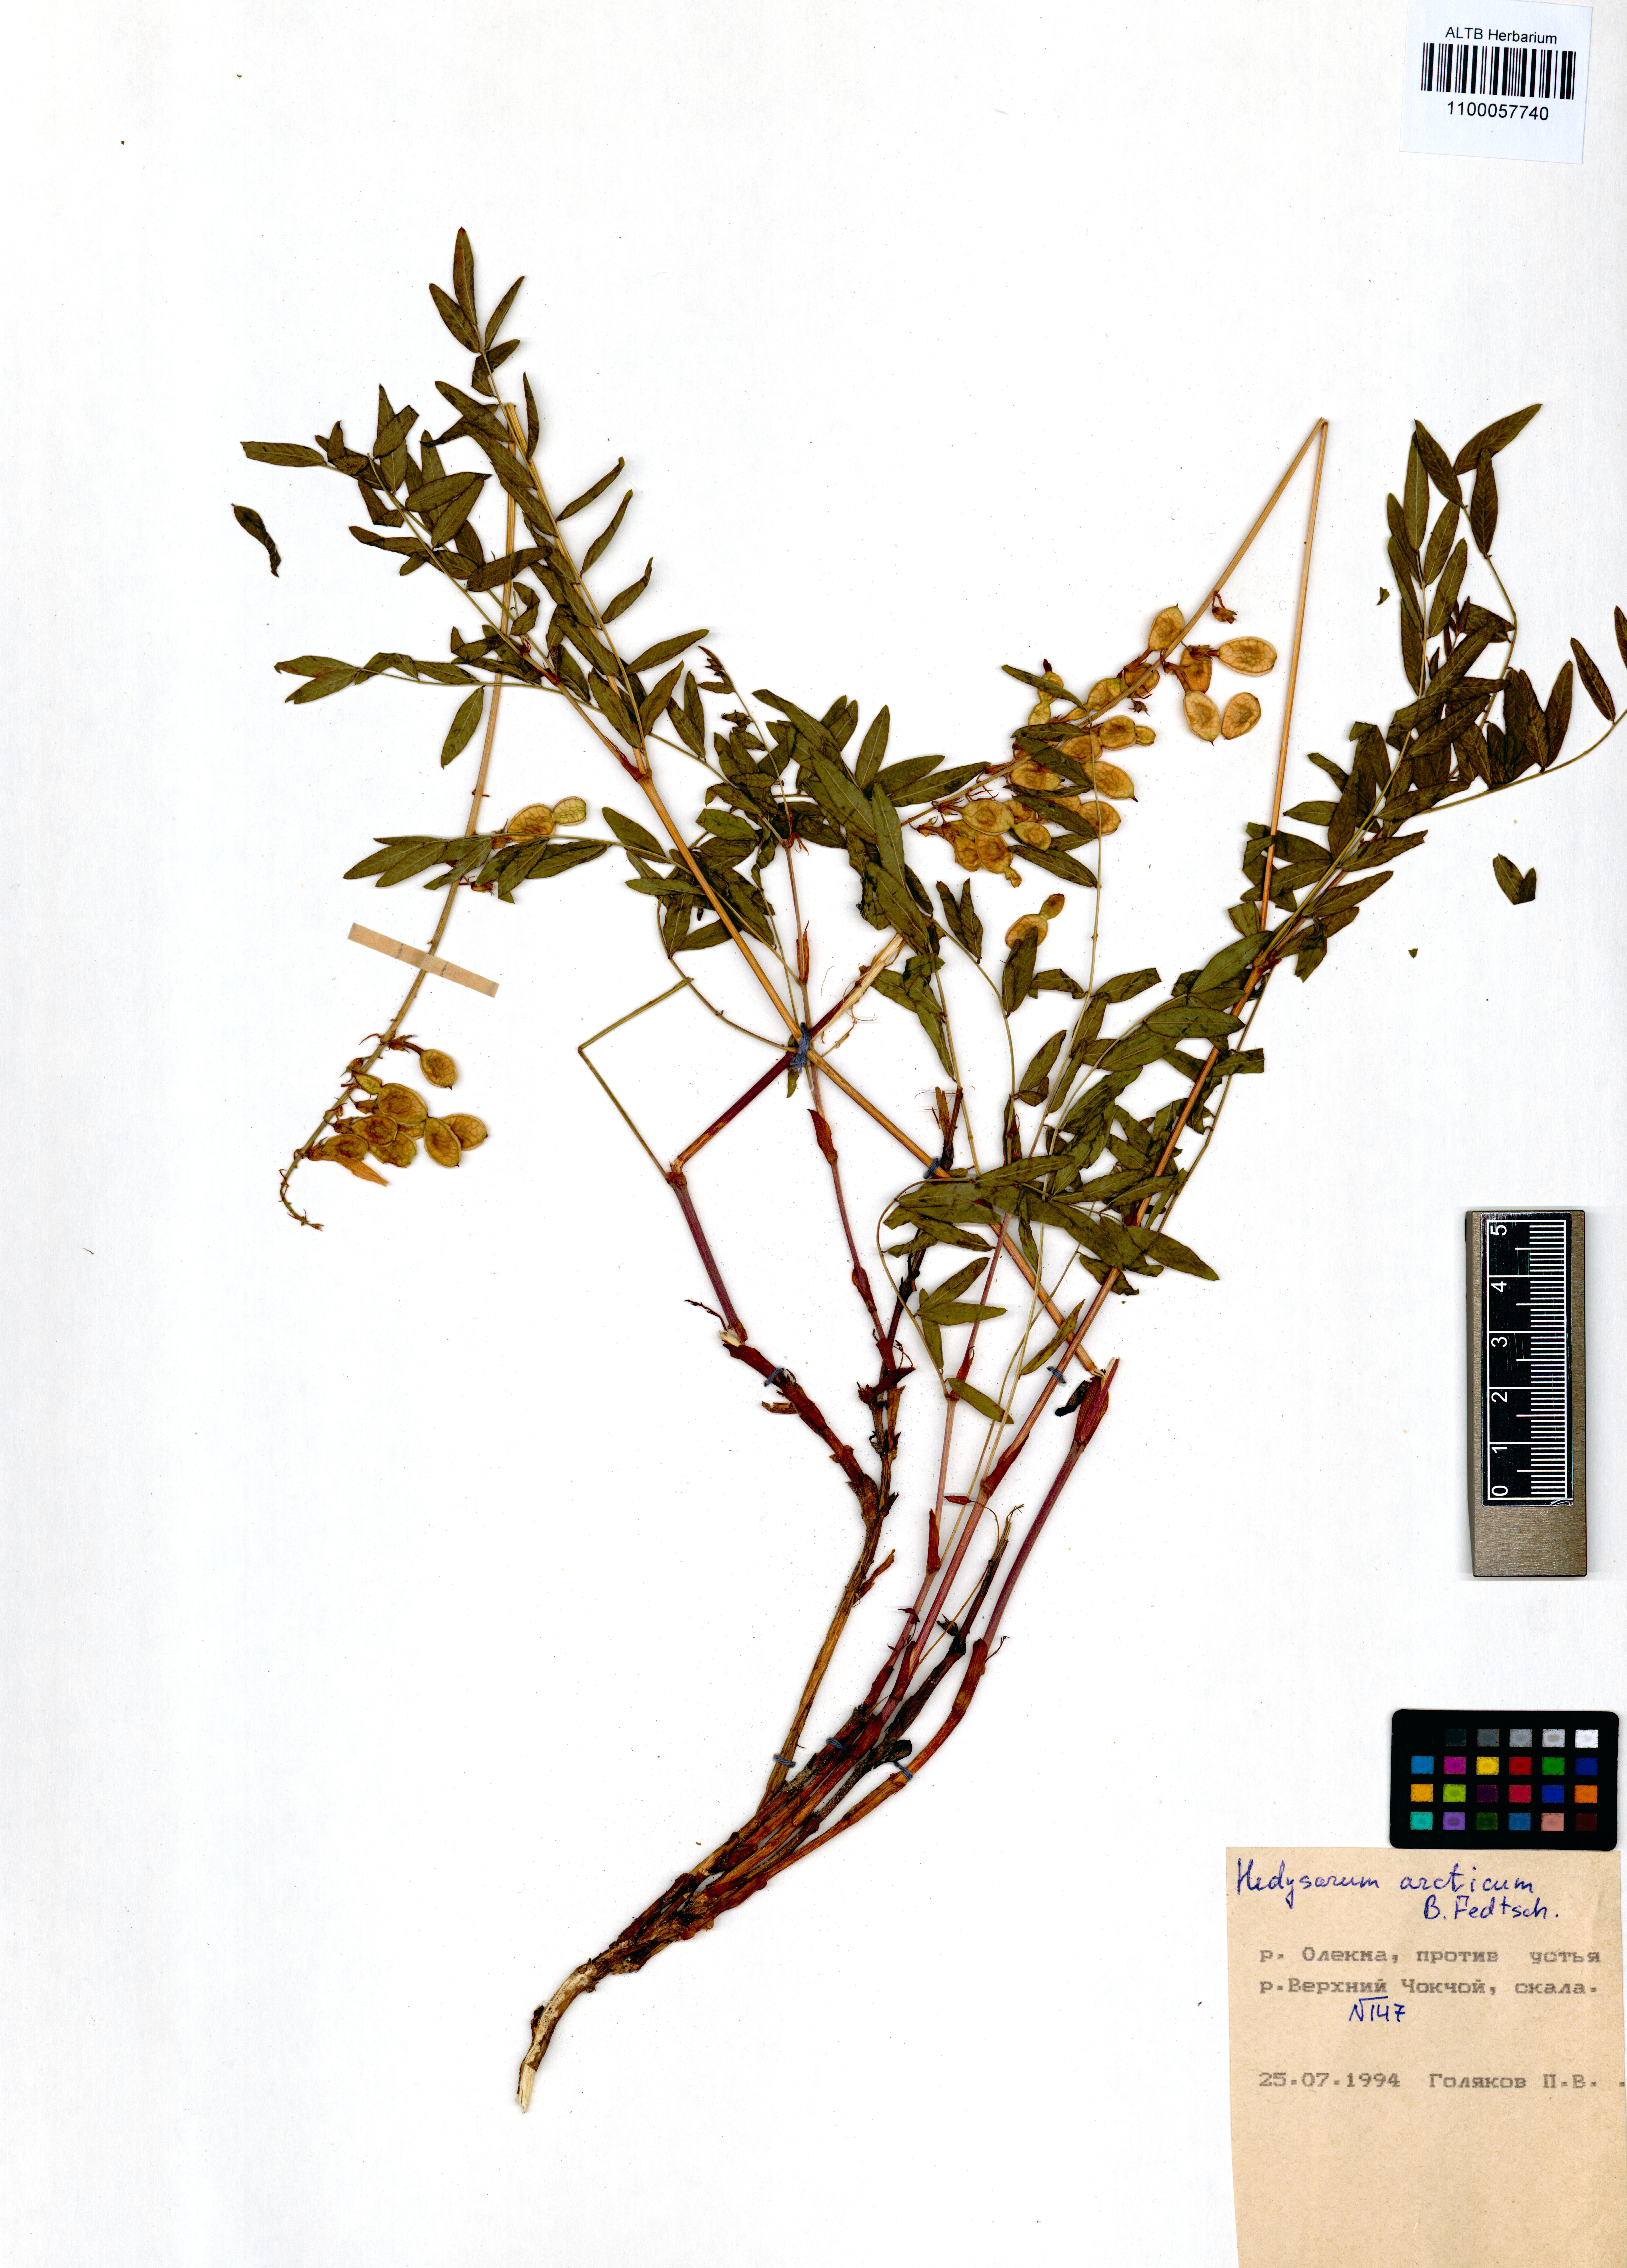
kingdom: Plantae
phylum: Tracheophyta
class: Magnoliopsida
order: Fabales
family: Fabaceae
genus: Hedysarum
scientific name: Hedysarum hedysaroides
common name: Alpine french-honeysuckle
